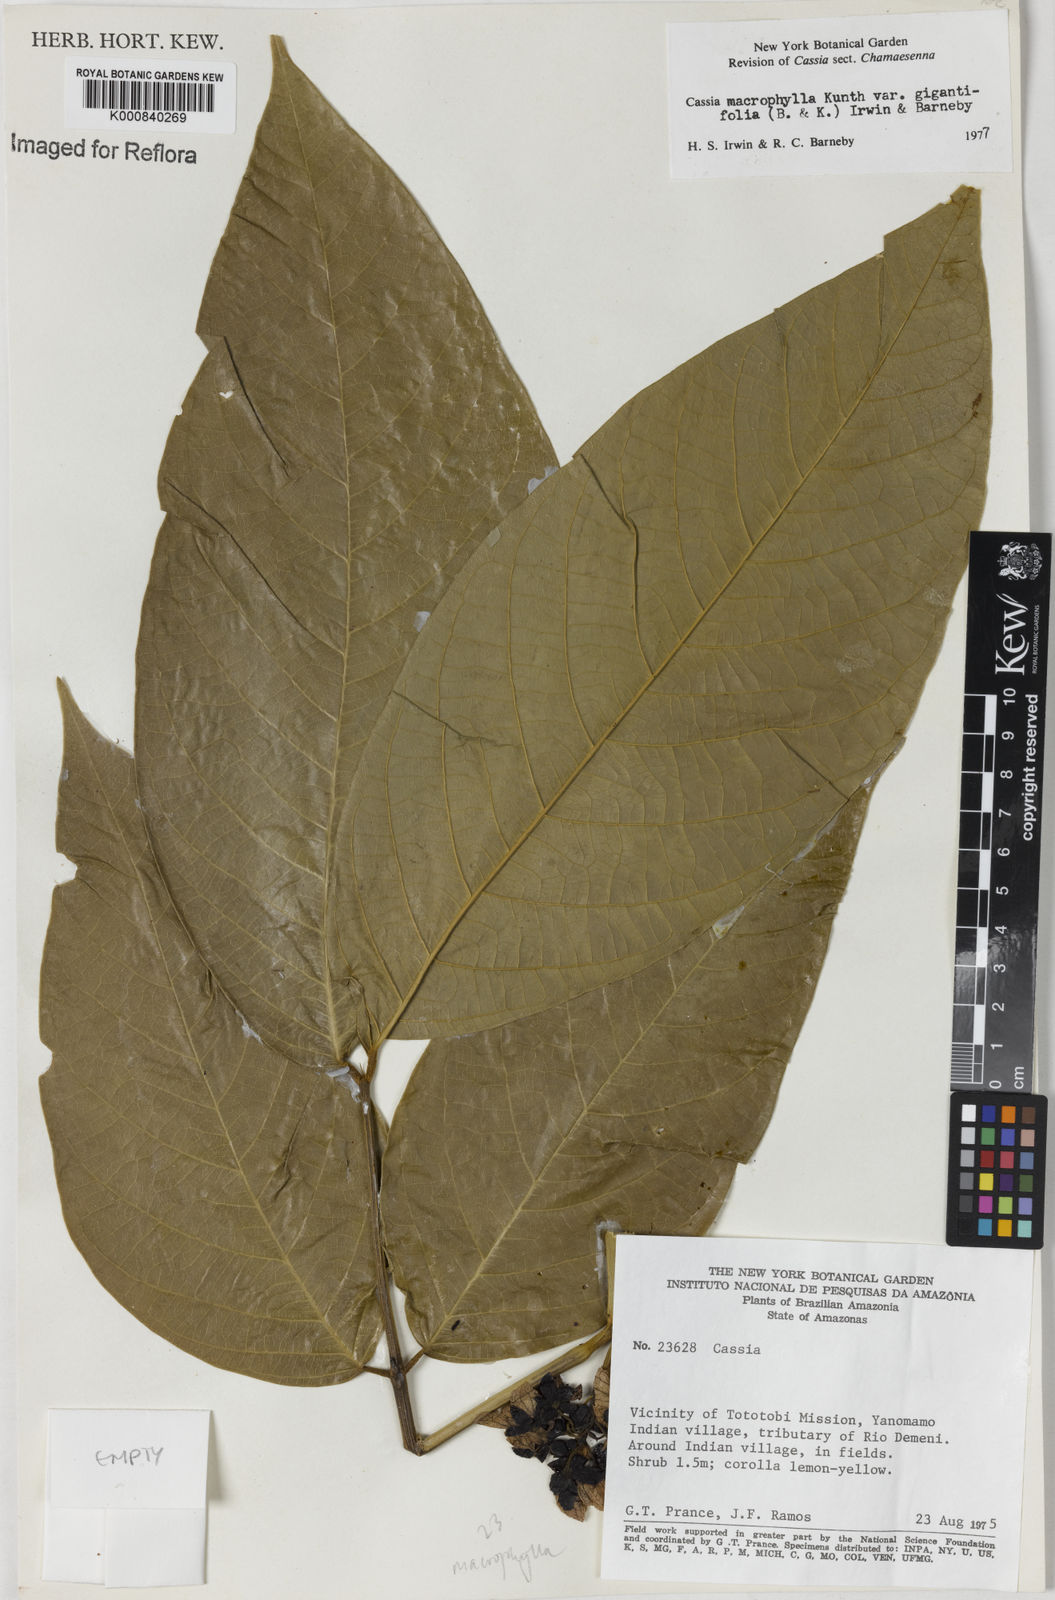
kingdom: Plantae
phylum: Tracheophyta
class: Magnoliopsida
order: Fabales
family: Fabaceae
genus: Senna
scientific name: Senna macrophylla
